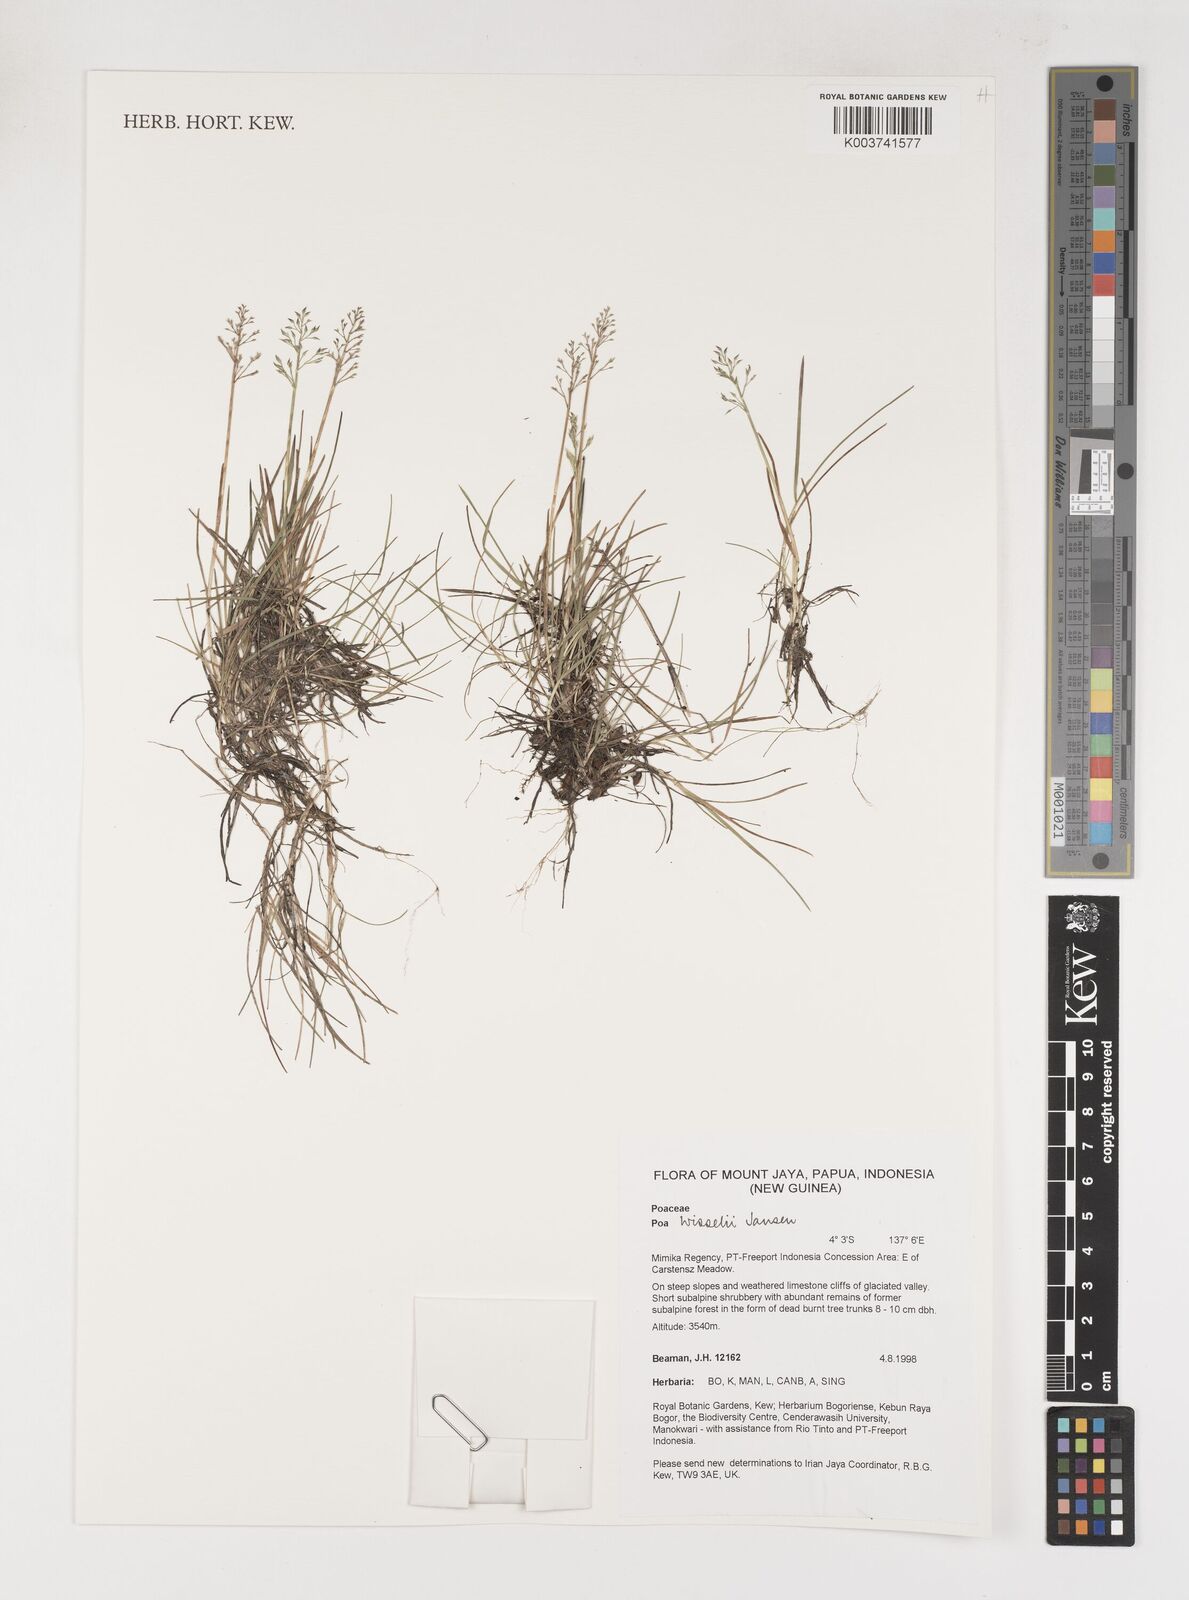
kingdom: Plantae
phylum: Tracheophyta
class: Liliopsida
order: Poales
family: Poaceae
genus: Poa
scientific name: Poa wisselii
